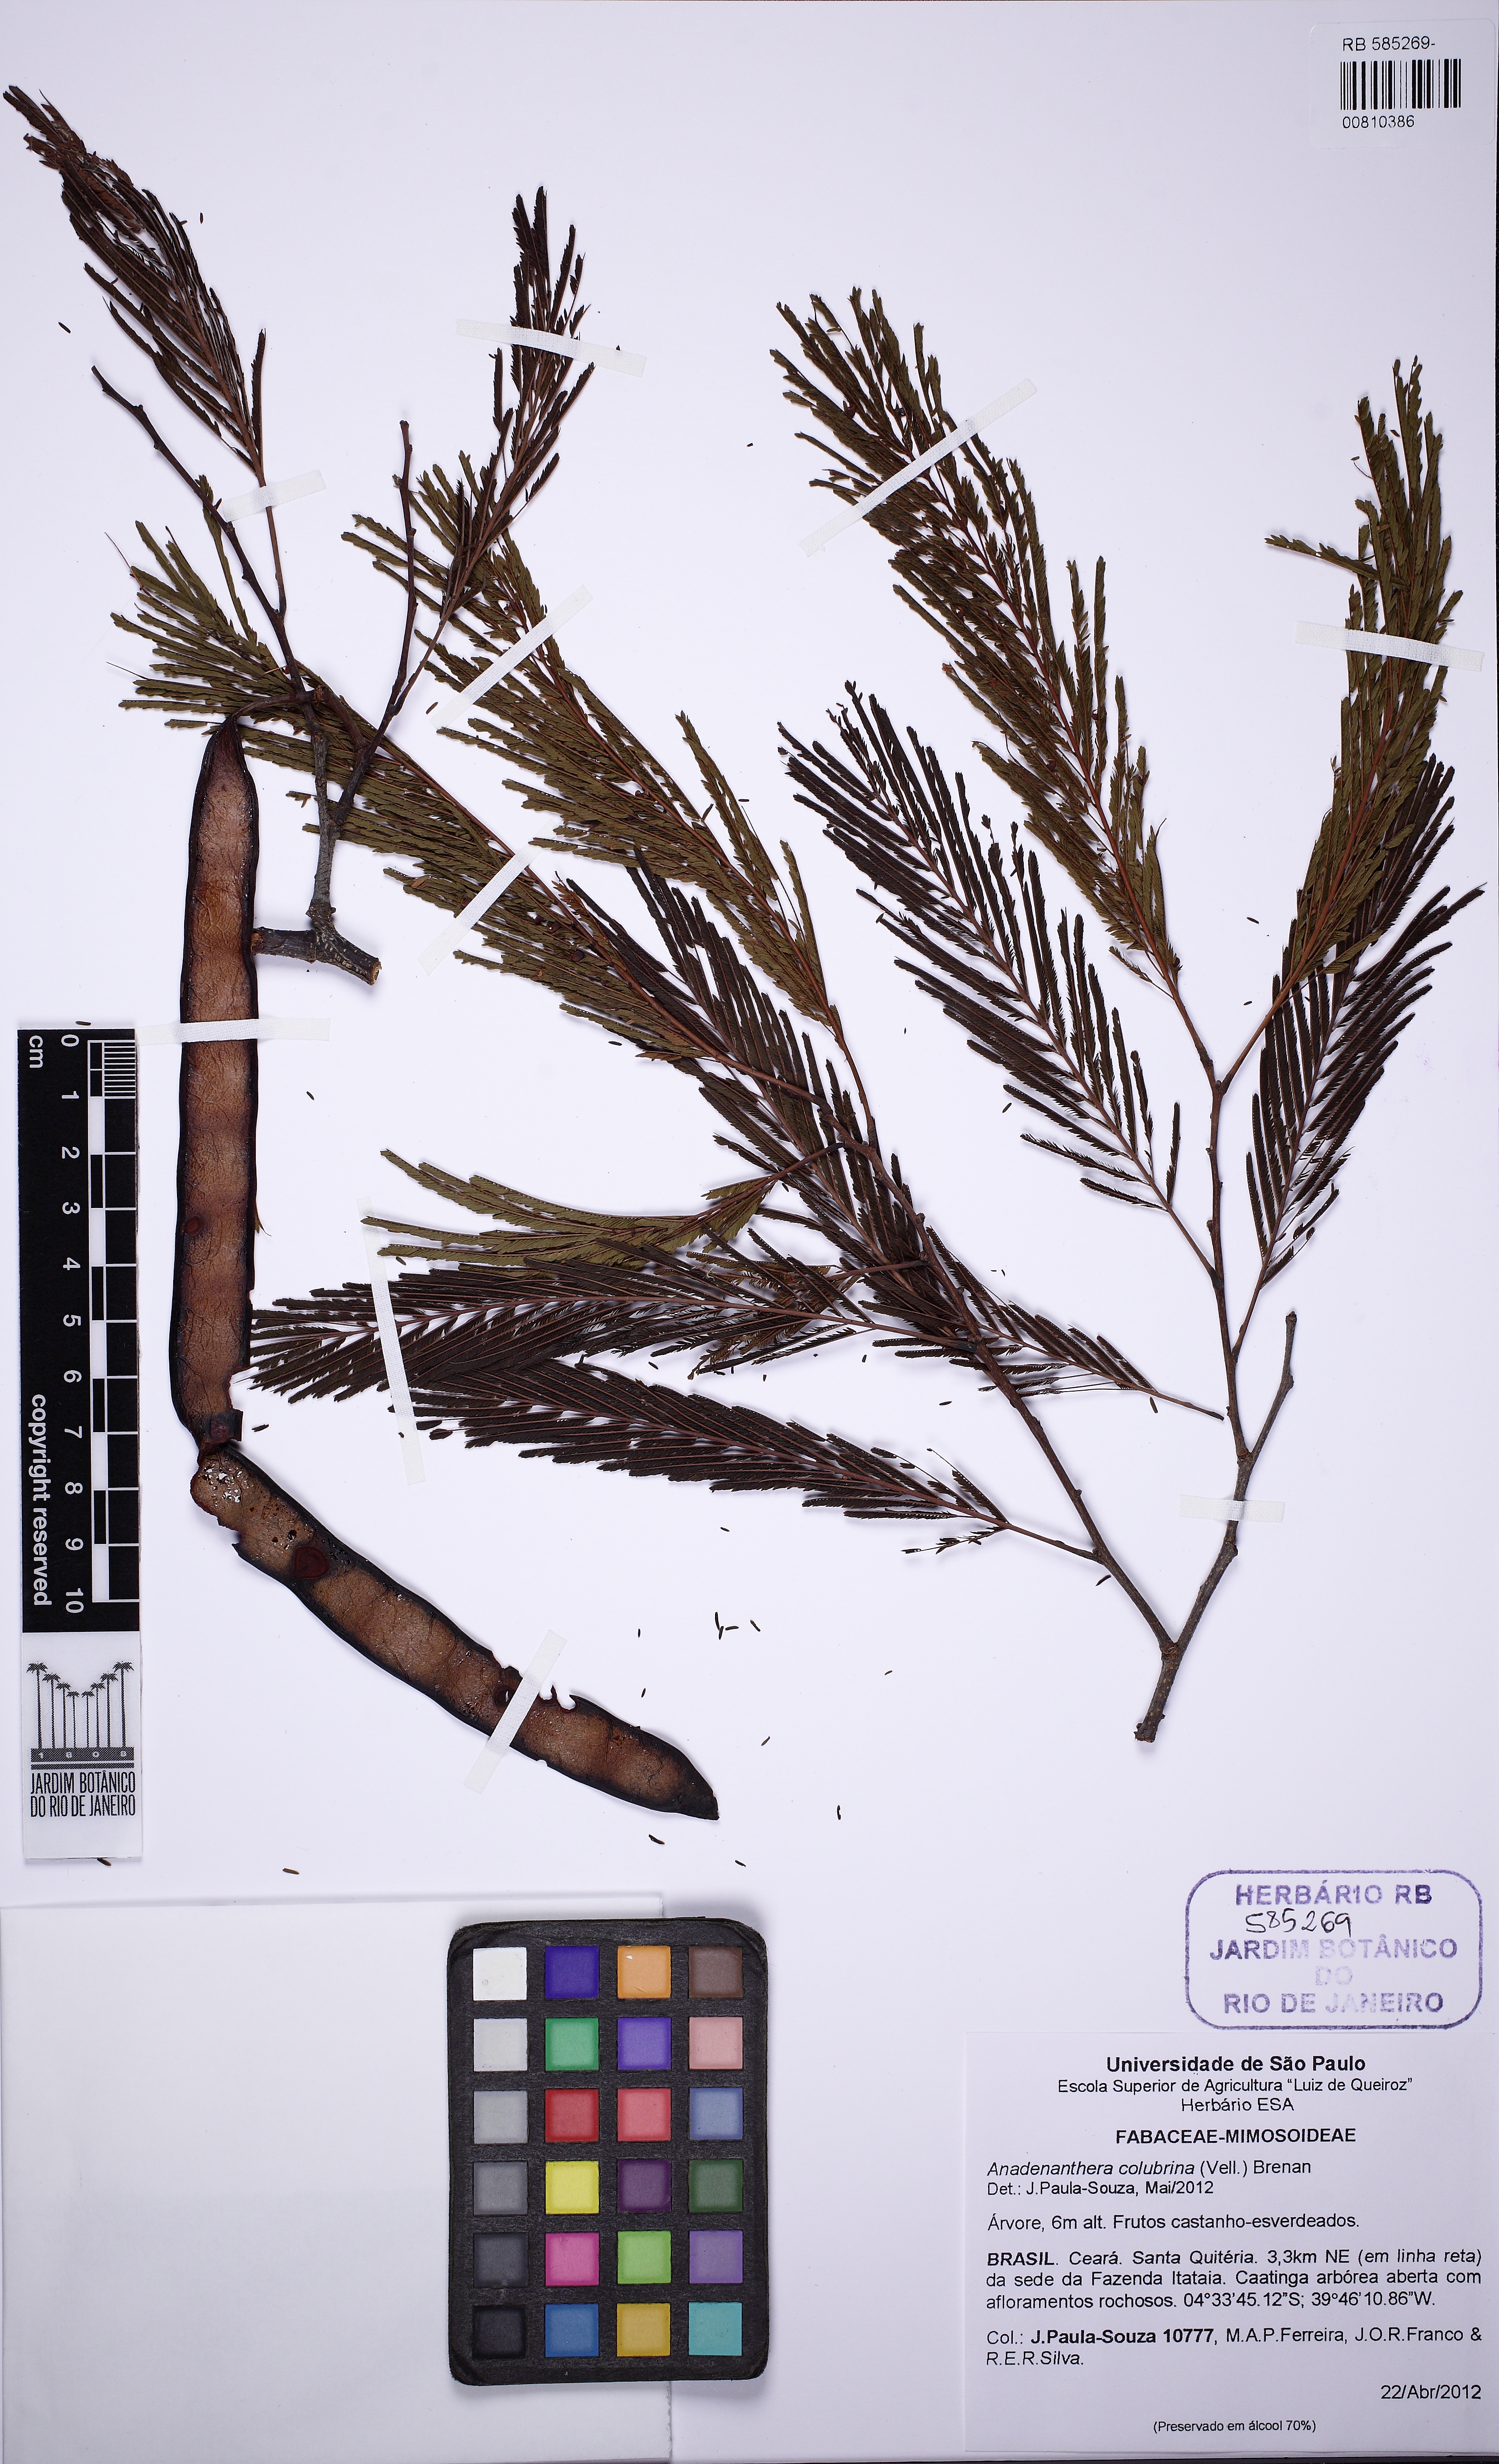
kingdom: Plantae
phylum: Tracheophyta
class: Magnoliopsida
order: Fabales
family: Fabaceae
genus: Anadenanthera
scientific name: Anadenanthera colubrina
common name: Curupay
